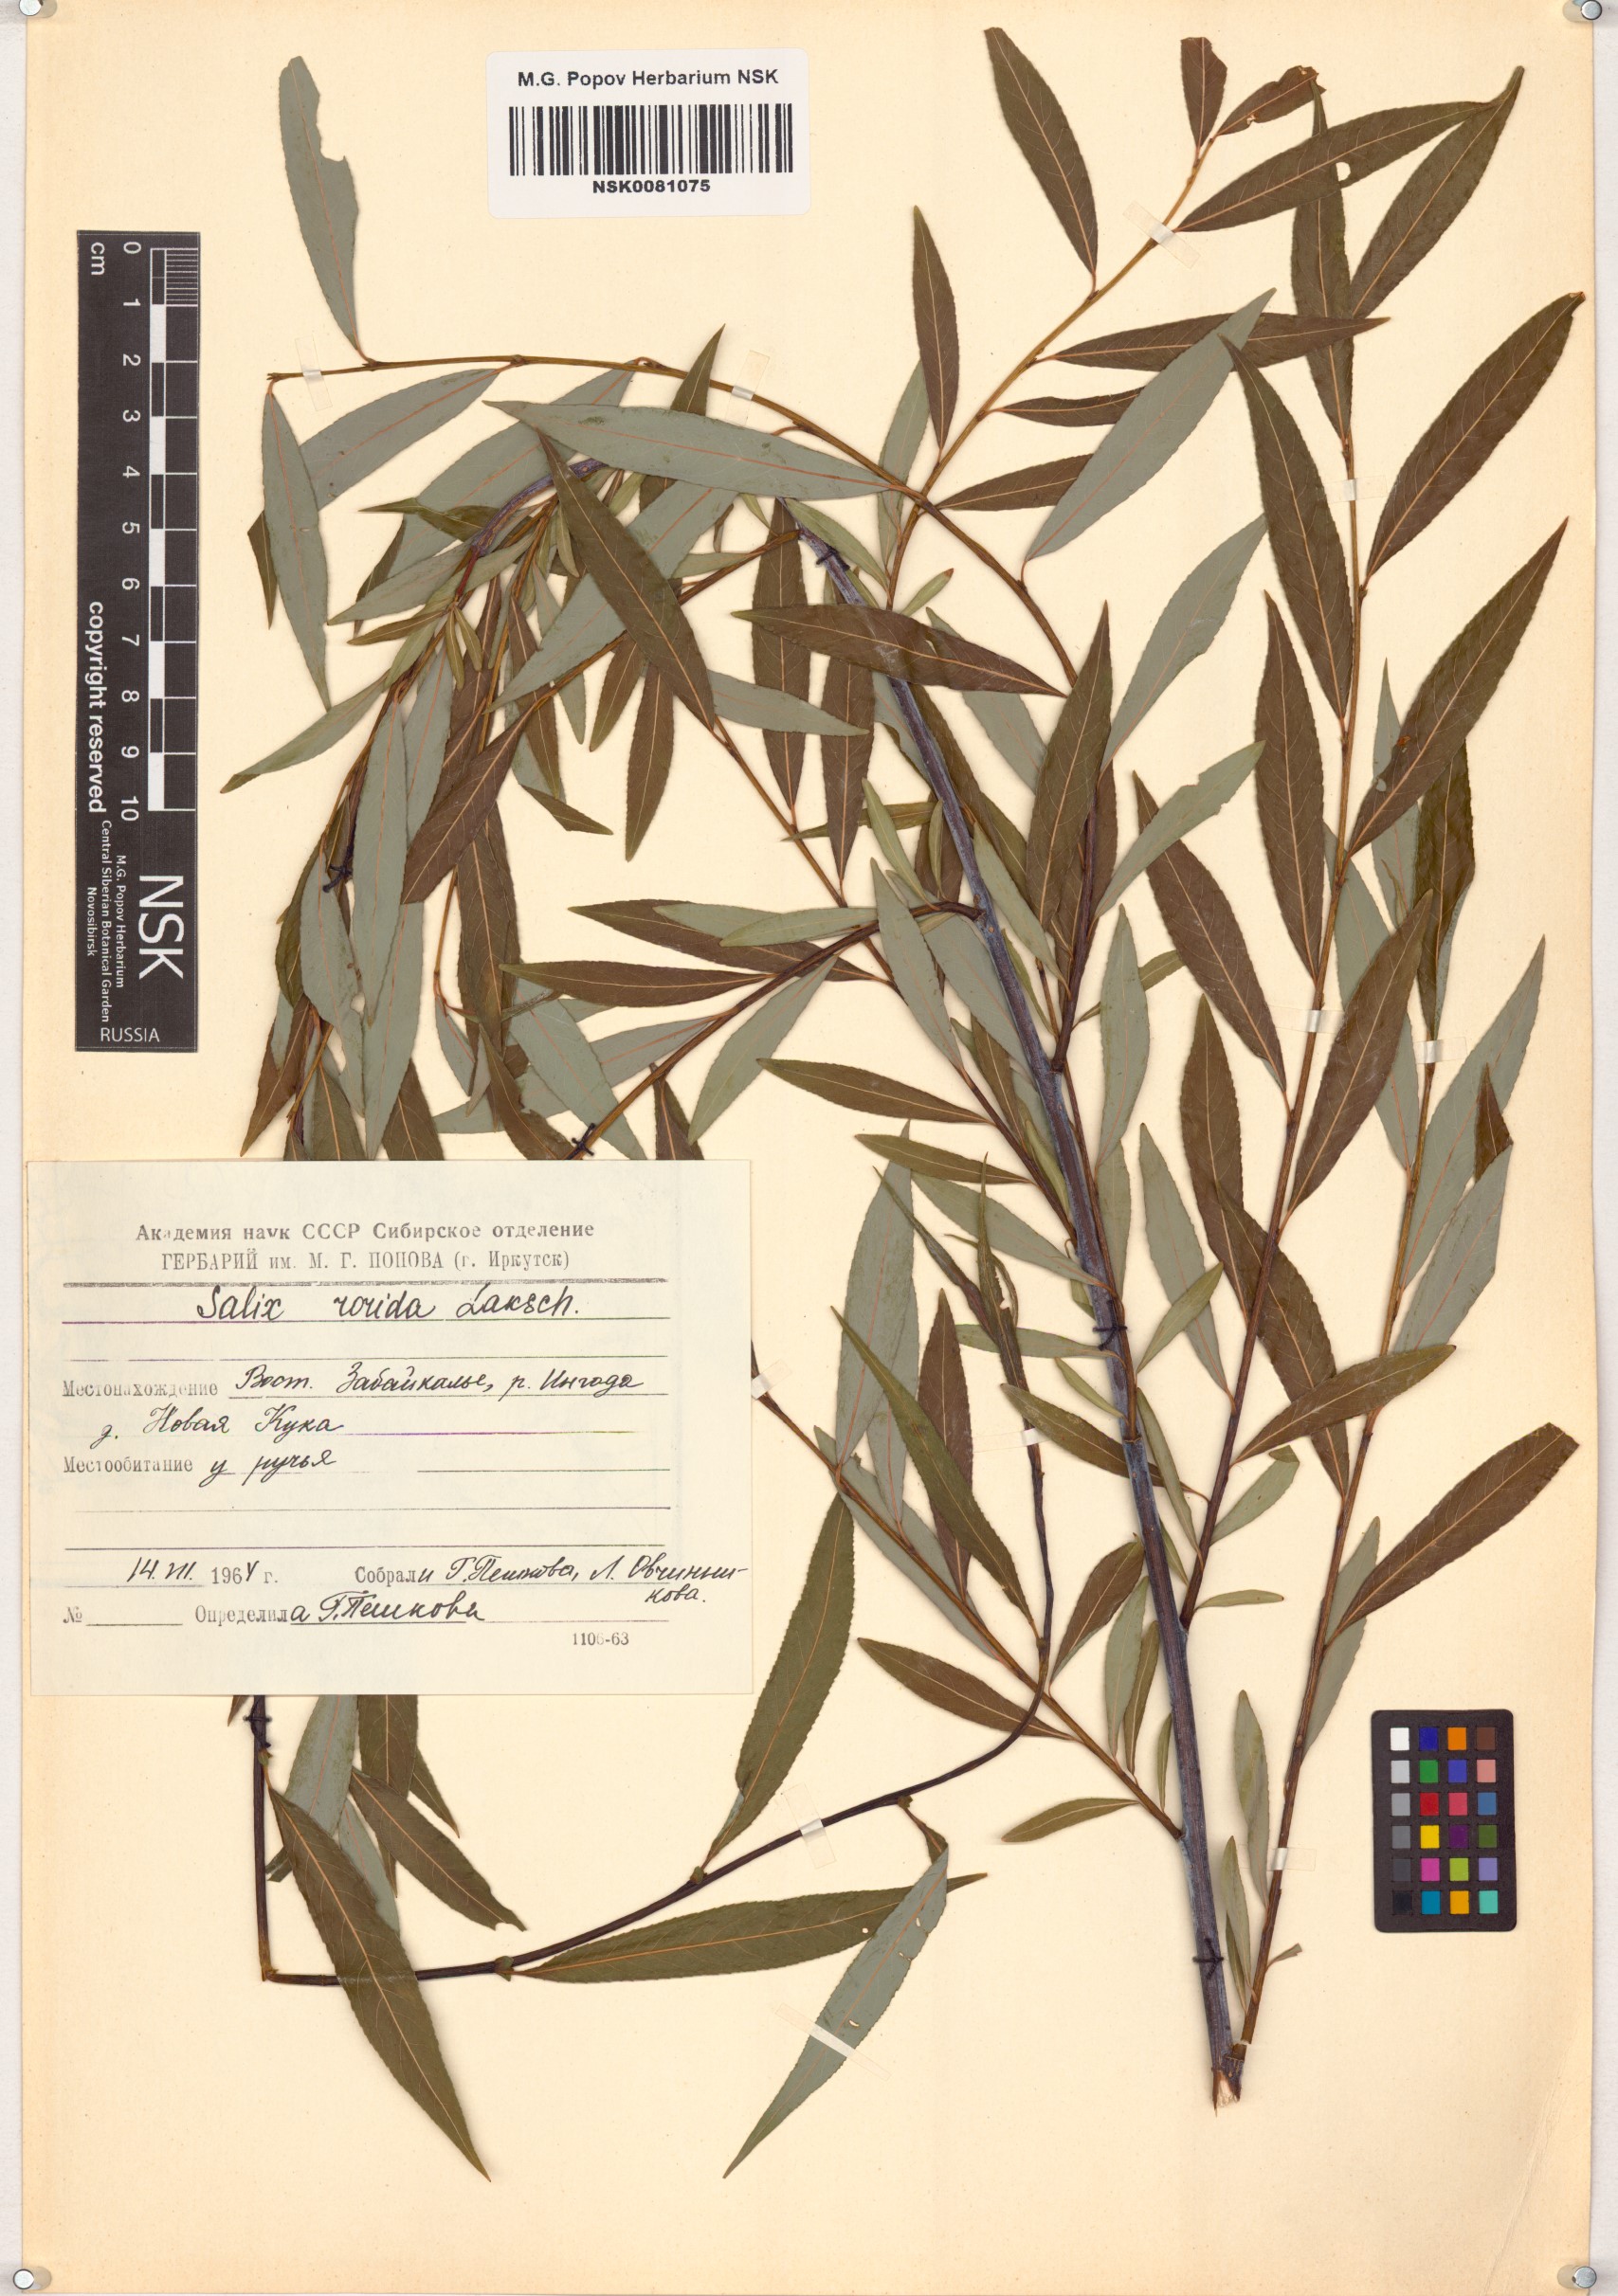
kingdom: Plantae
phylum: Tracheophyta
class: Magnoliopsida
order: Malpighiales
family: Salicaceae
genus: Salix
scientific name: Salix rorida
